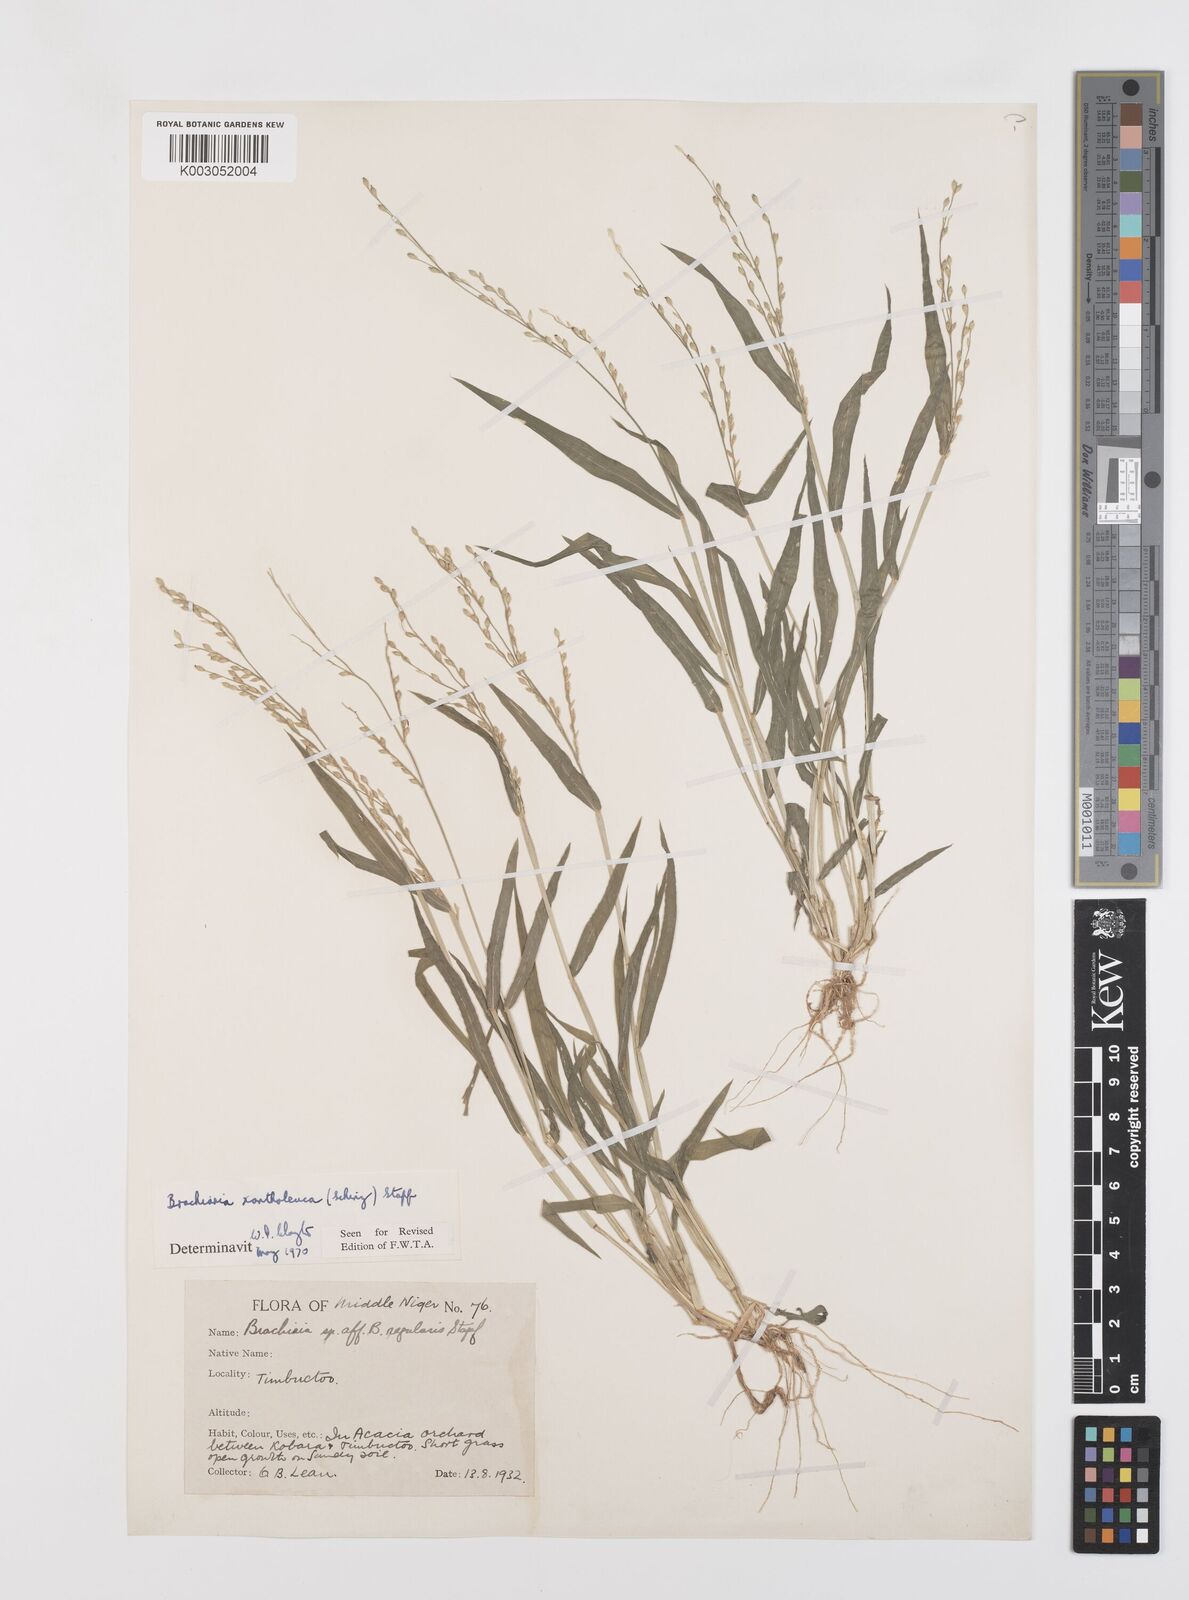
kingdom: Plantae
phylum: Tracheophyta
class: Liliopsida
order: Poales
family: Poaceae
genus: Urochloa
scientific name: Urochloa ramosa
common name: Browntop millet
